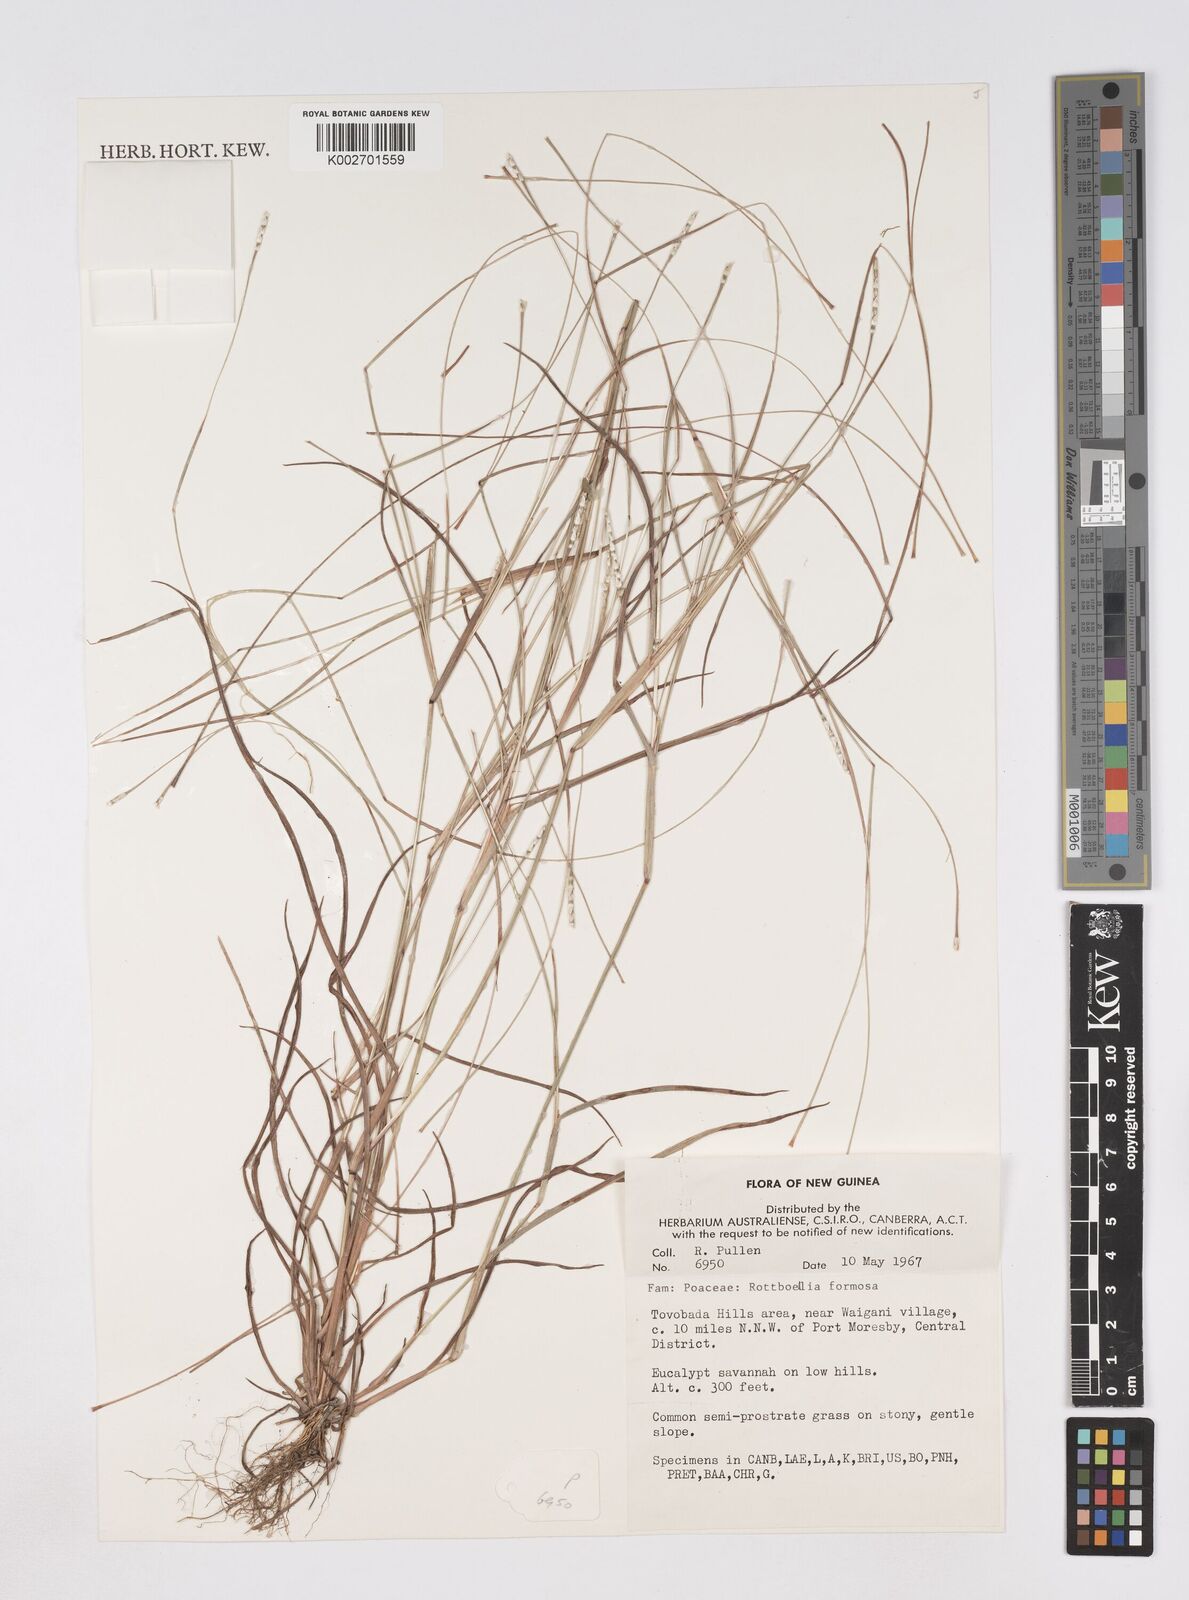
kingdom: Plantae
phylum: Tracheophyta
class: Liliopsida
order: Poales
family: Poaceae
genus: Heteropholis
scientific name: Heteropholis
